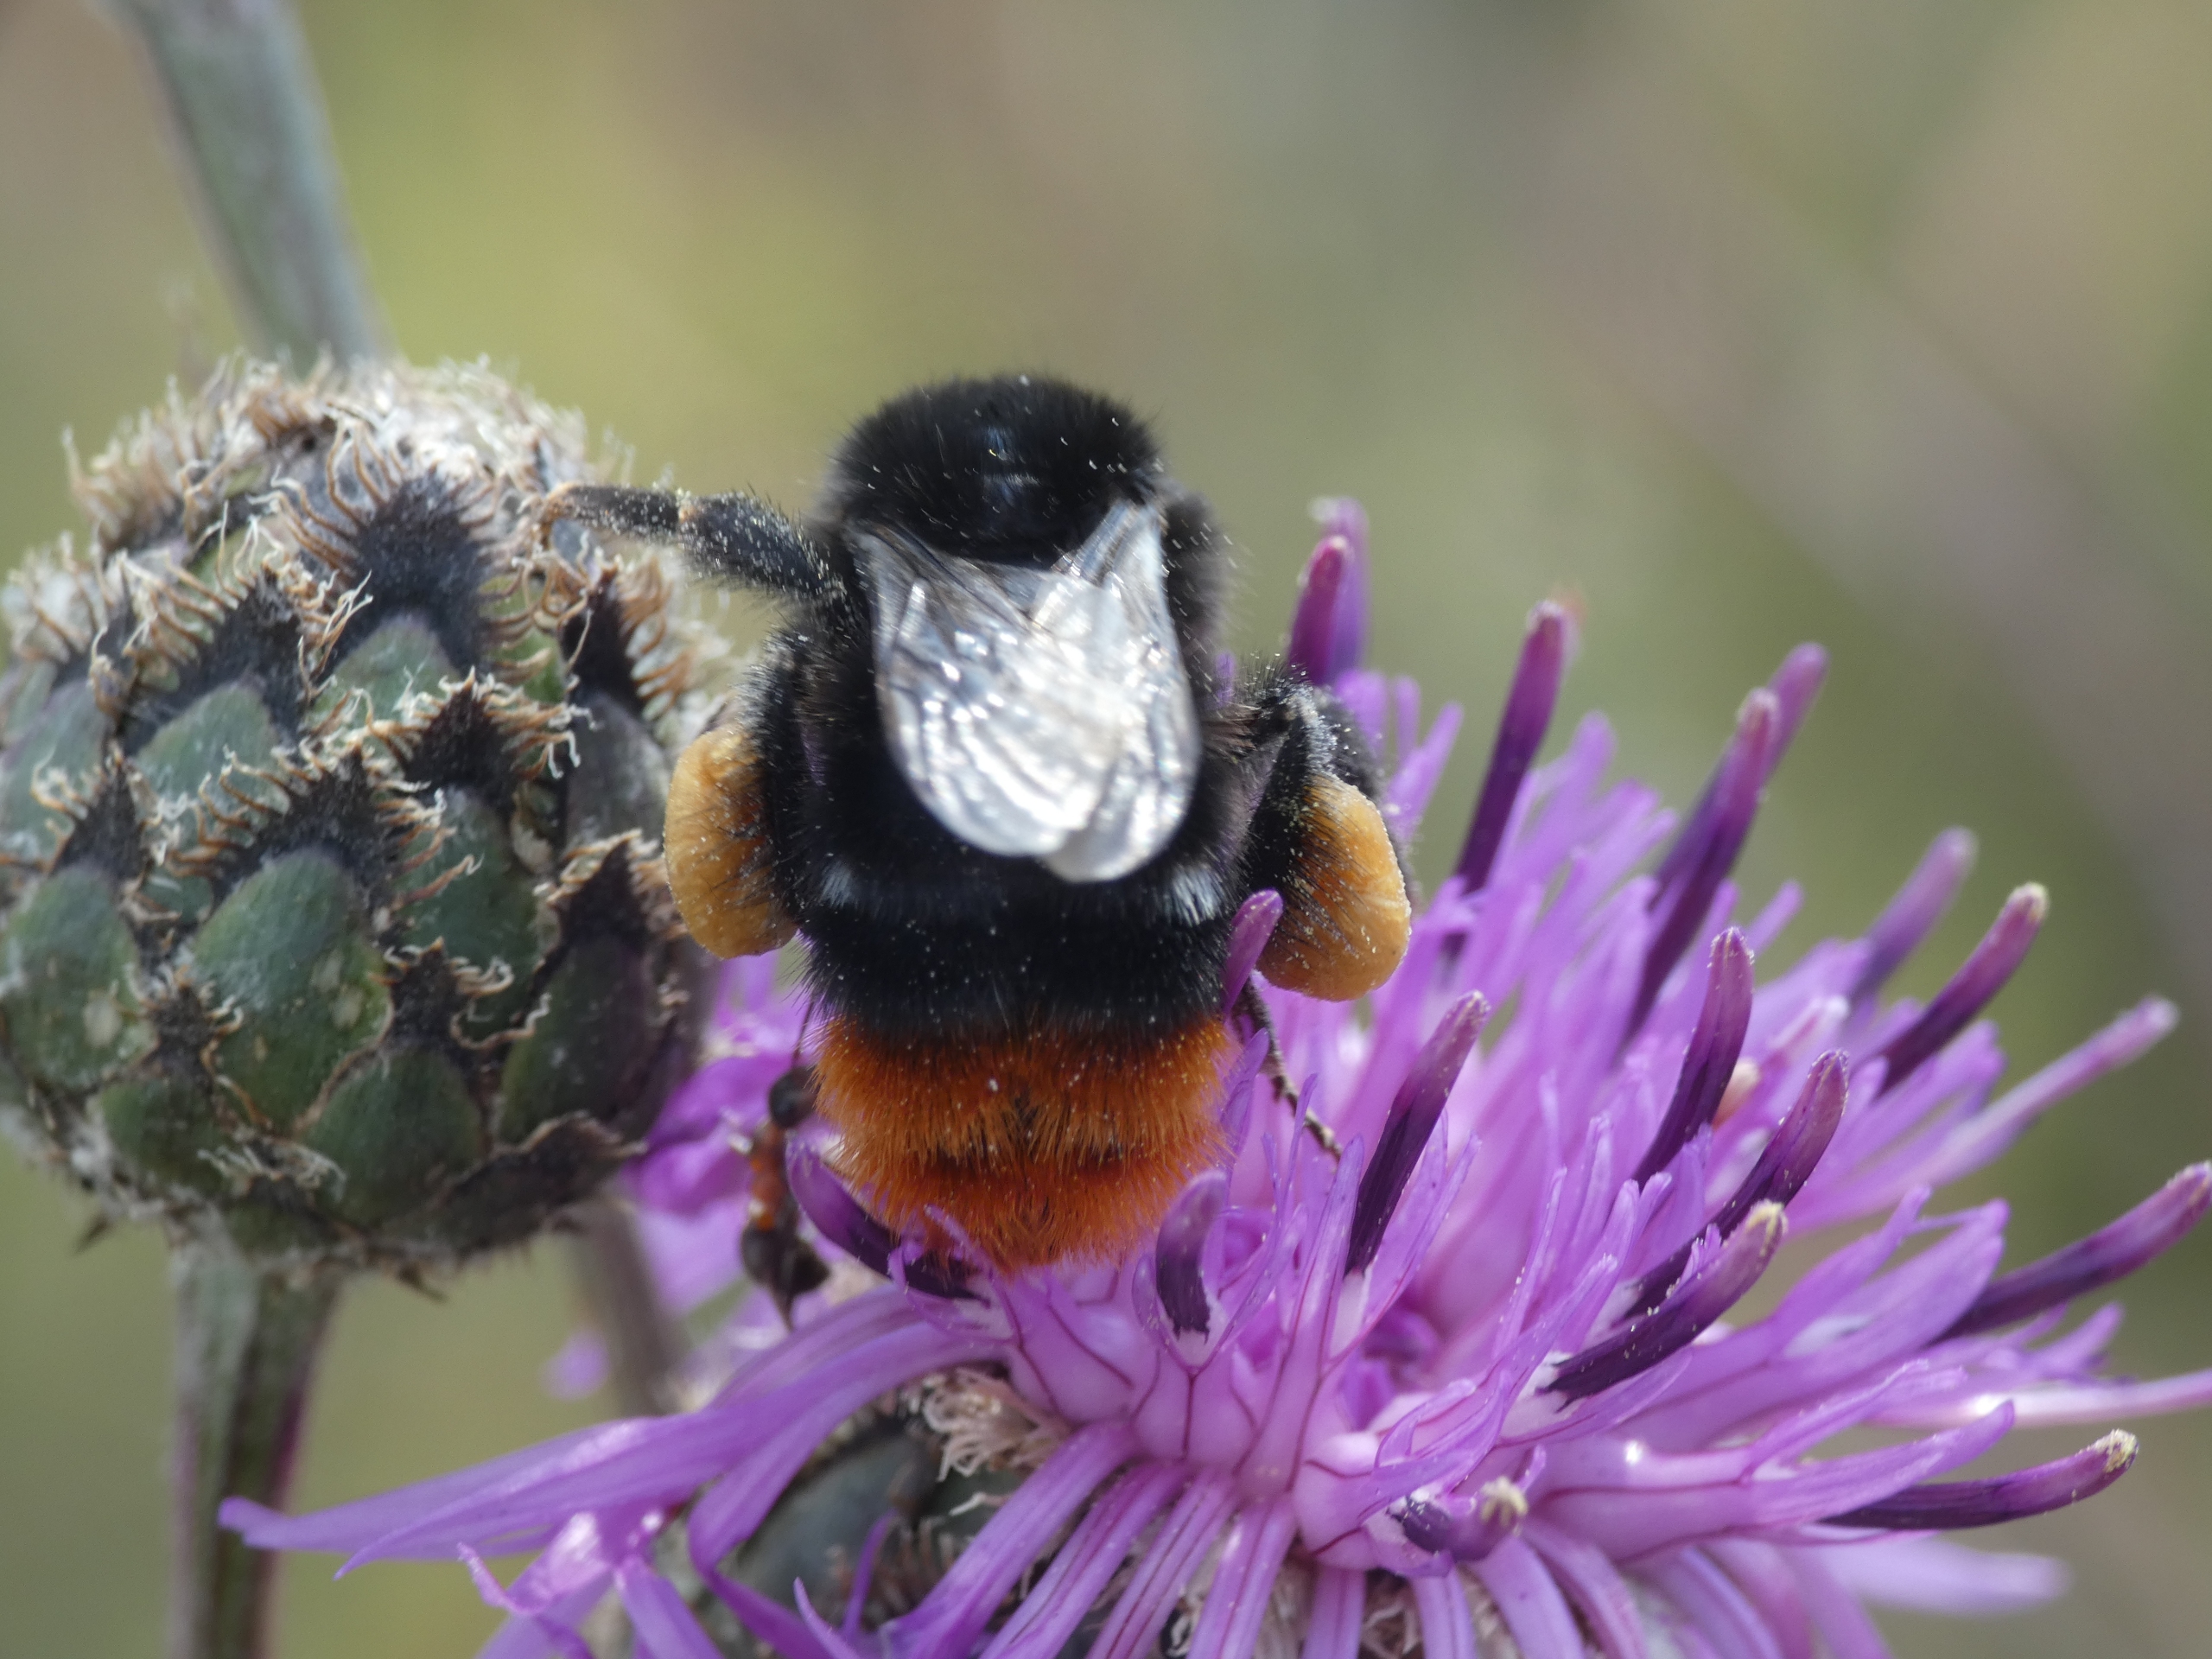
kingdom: Animalia
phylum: Arthropoda
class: Insecta
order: Hymenoptera
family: Apidae
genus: Bombus
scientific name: Bombus lapidarius
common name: Stenhumle
